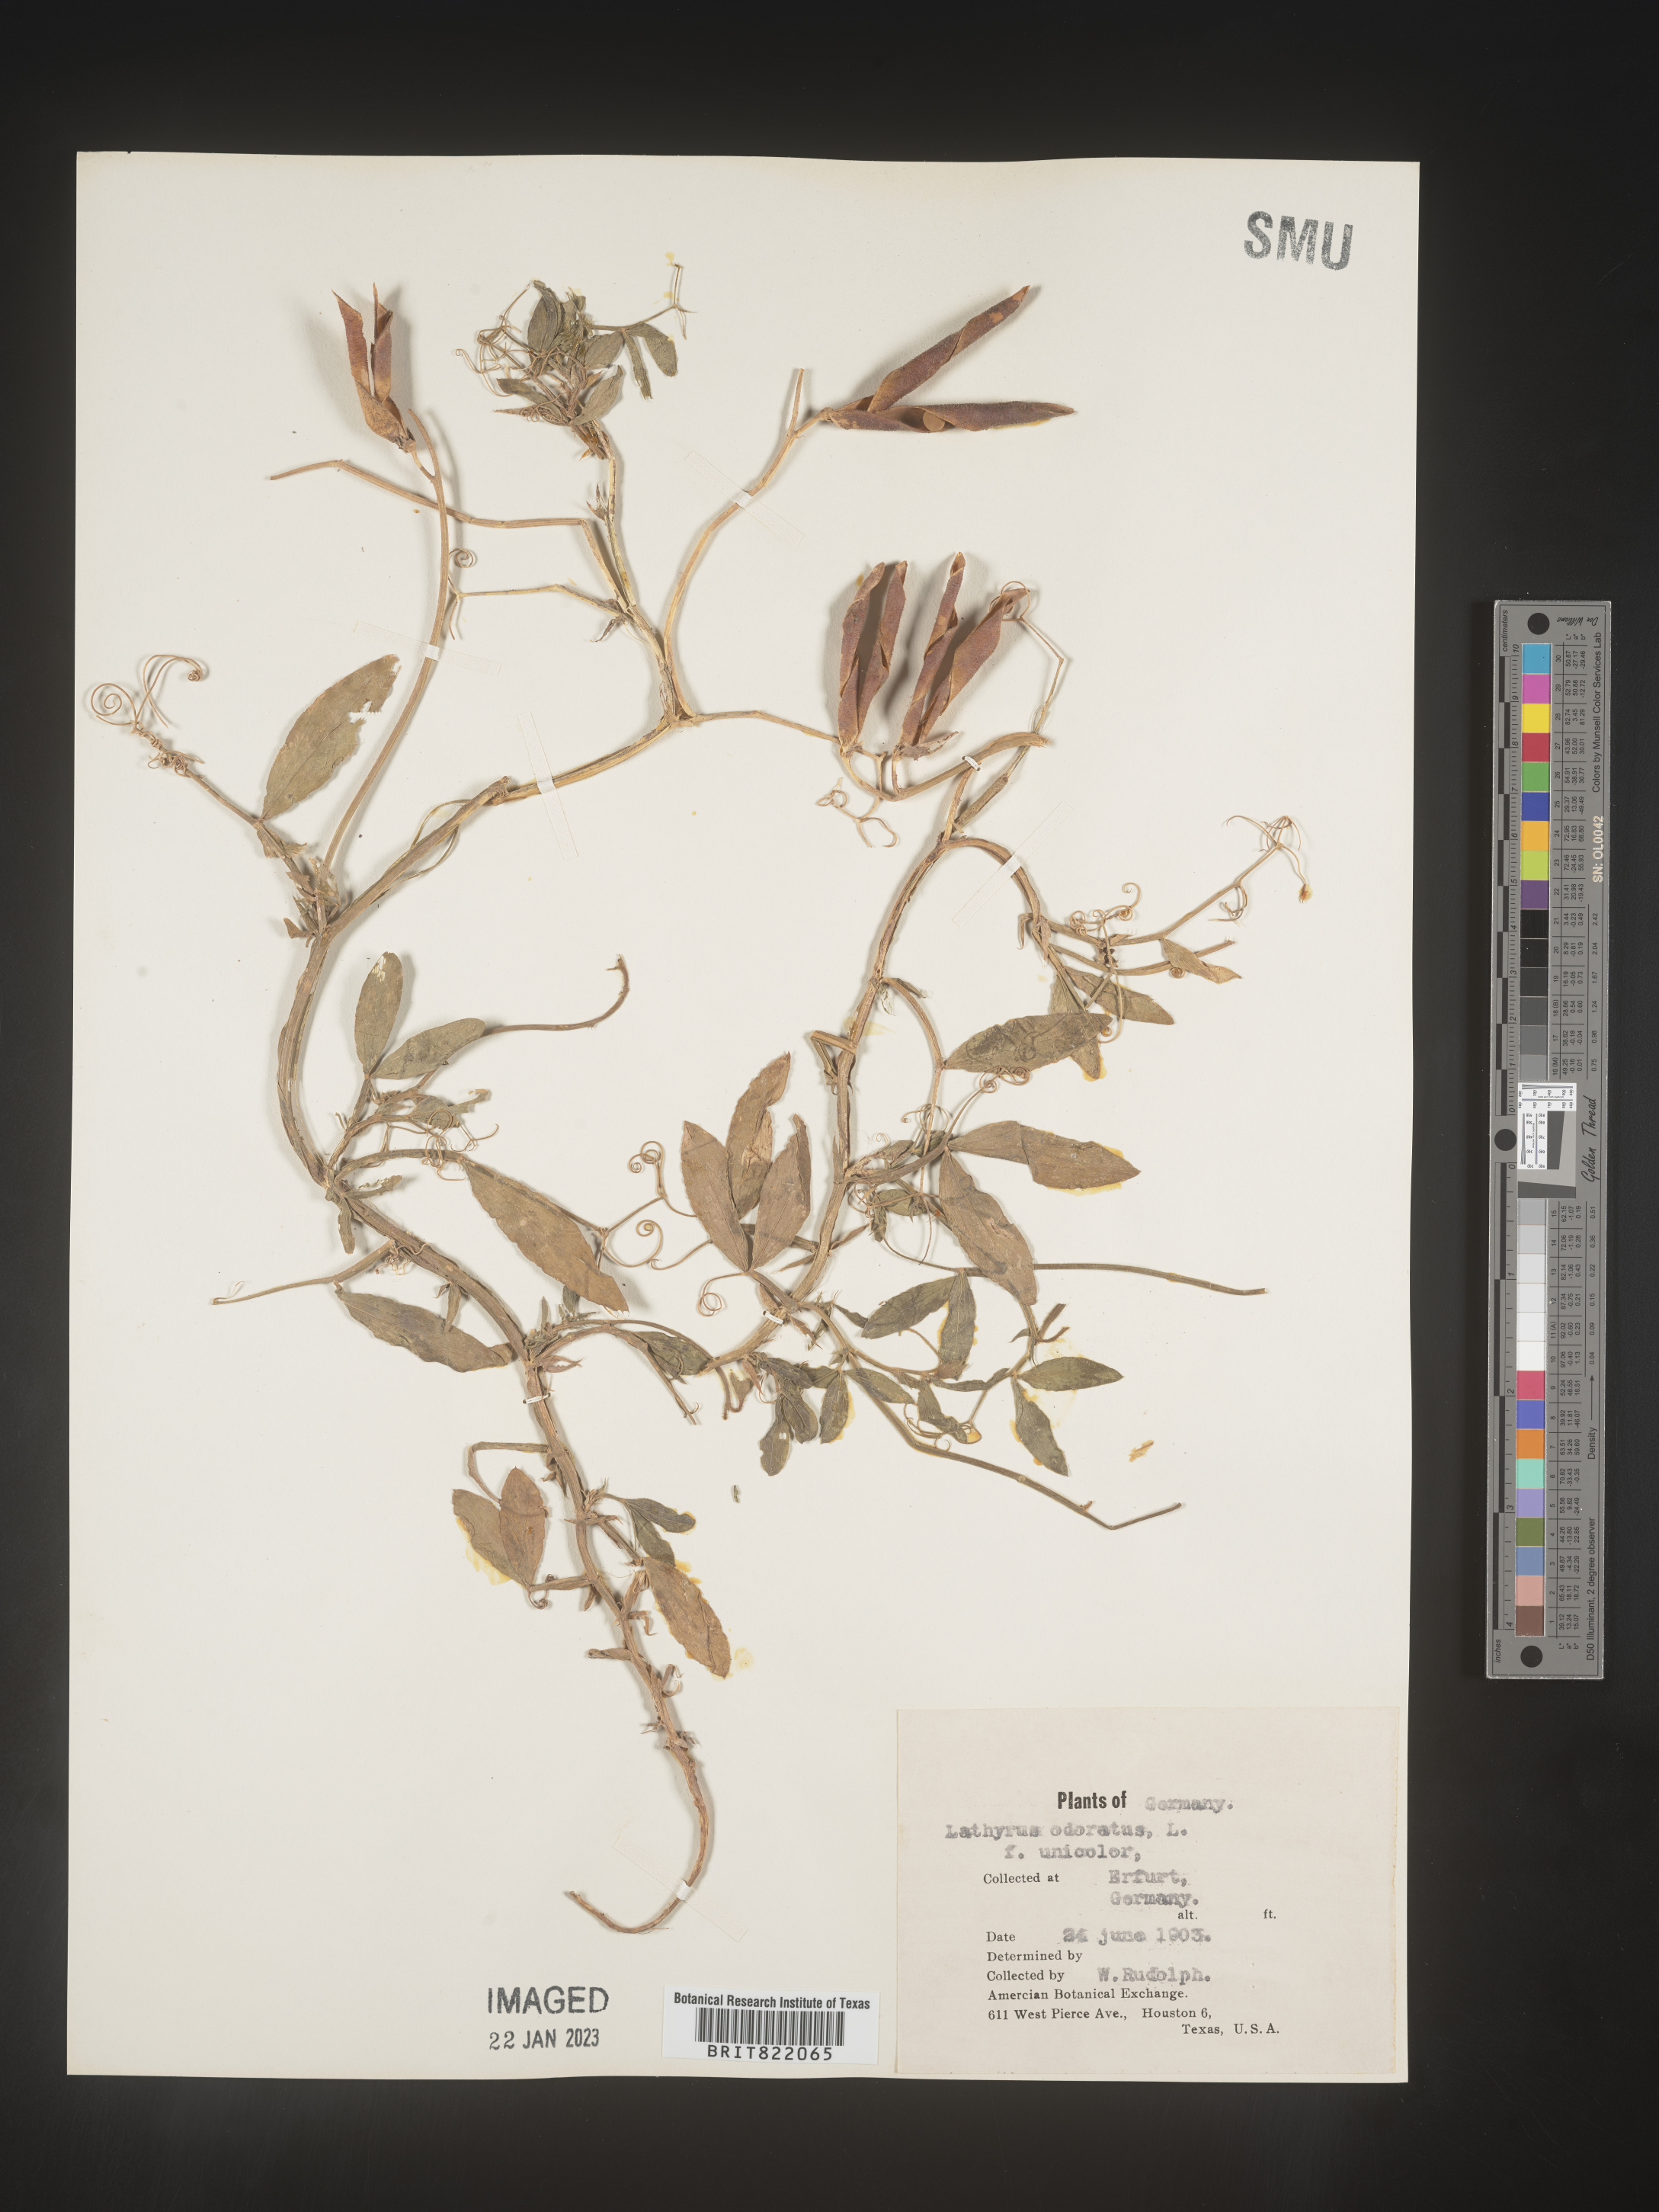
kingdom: Plantae
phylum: Tracheophyta
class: Magnoliopsida
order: Fabales
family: Fabaceae
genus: Lathyrus
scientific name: Lathyrus
